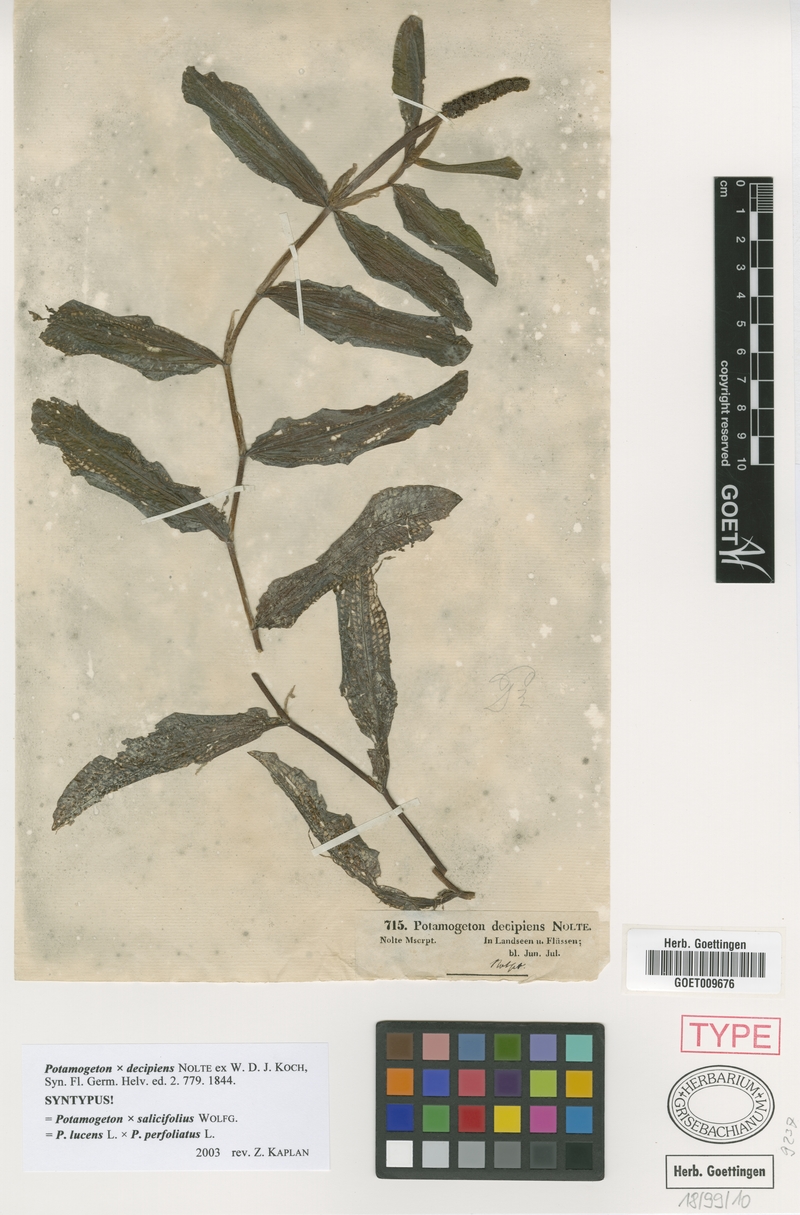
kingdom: Plantae
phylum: Tracheophyta
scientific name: Tracheophyta
